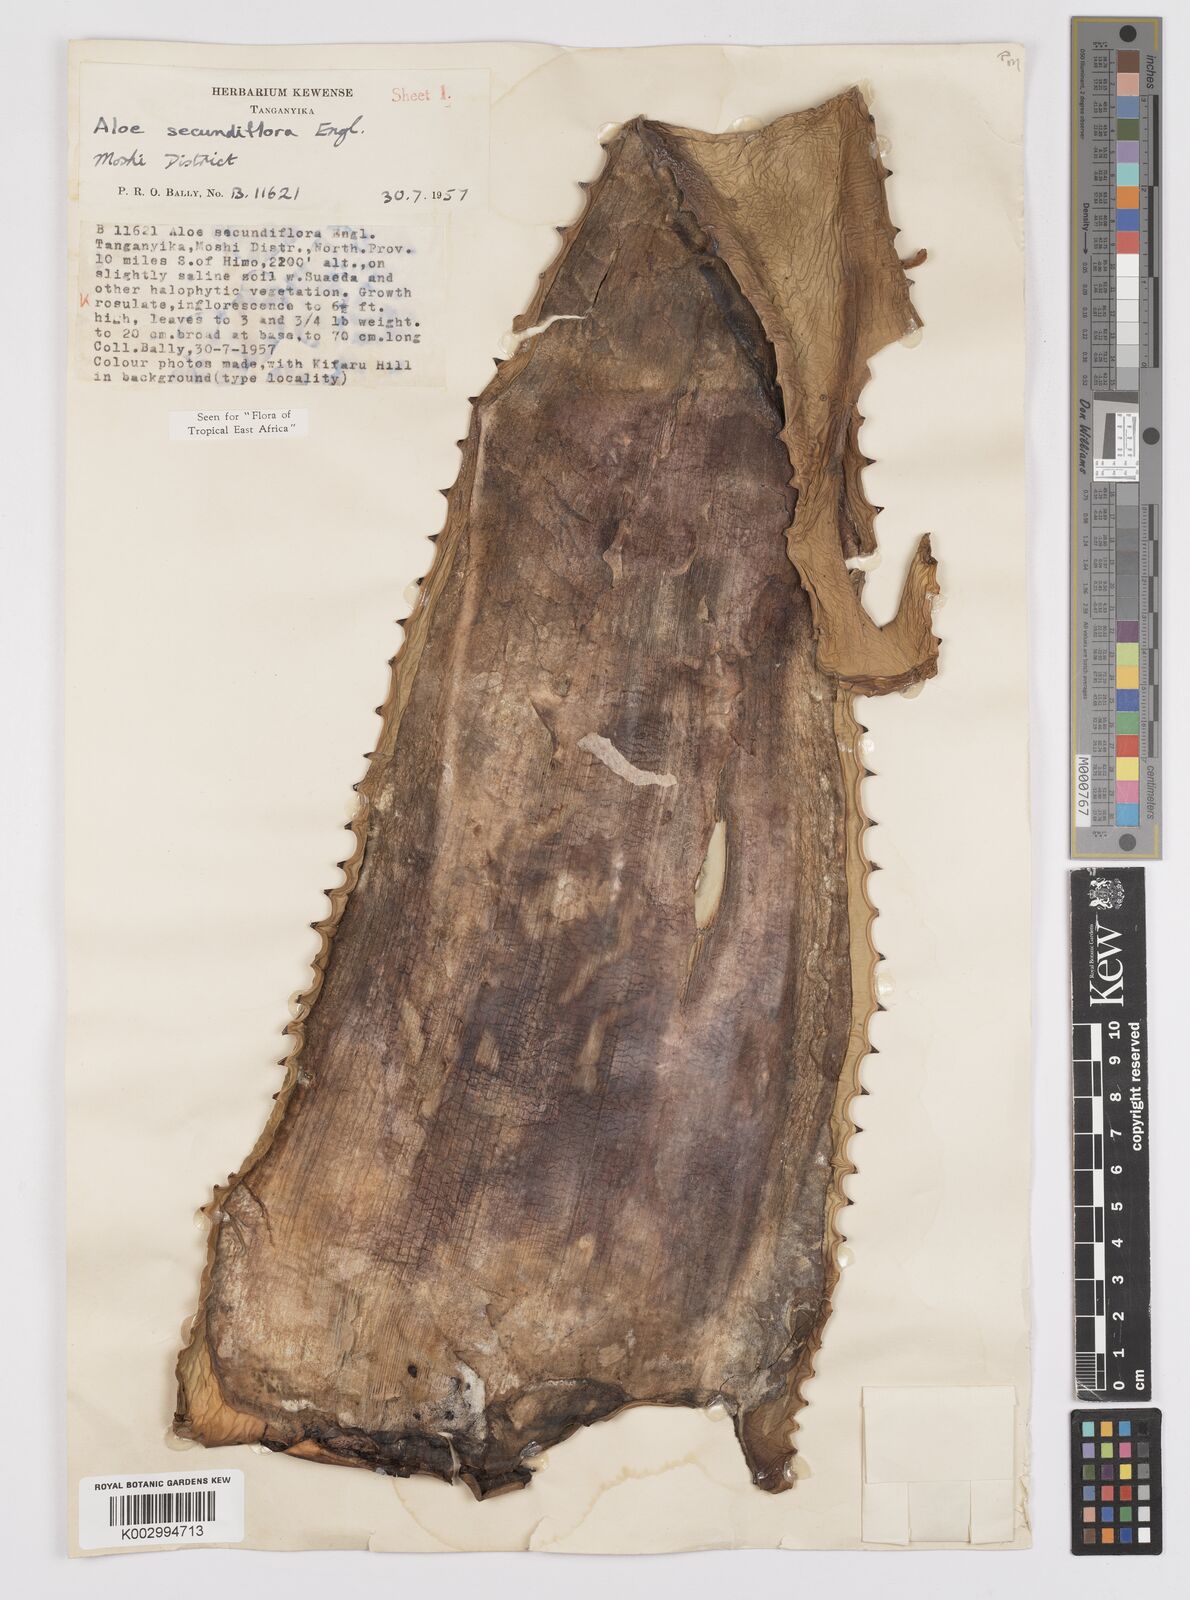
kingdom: Plantae
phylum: Tracheophyta
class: Liliopsida
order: Asparagales
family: Asphodelaceae
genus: Aloe
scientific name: Aloe secundiflora
